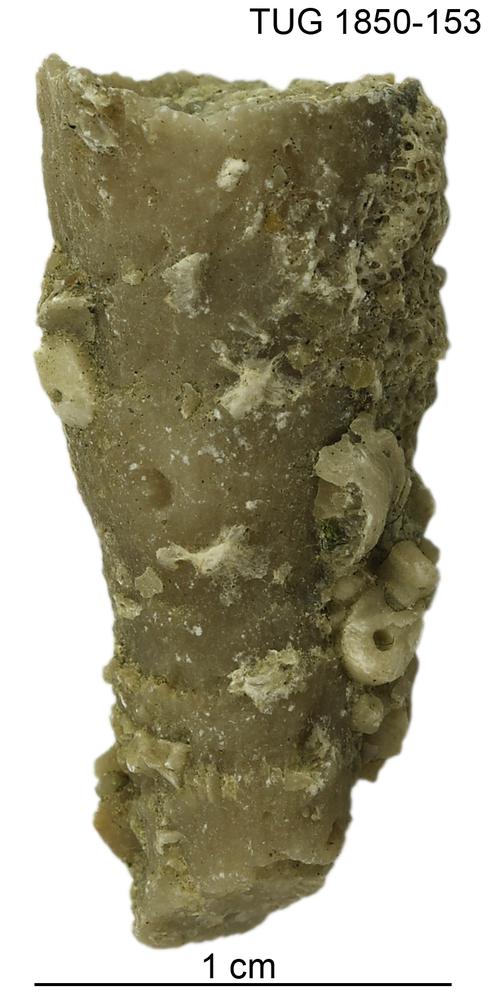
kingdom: Animalia
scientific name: Animalia
